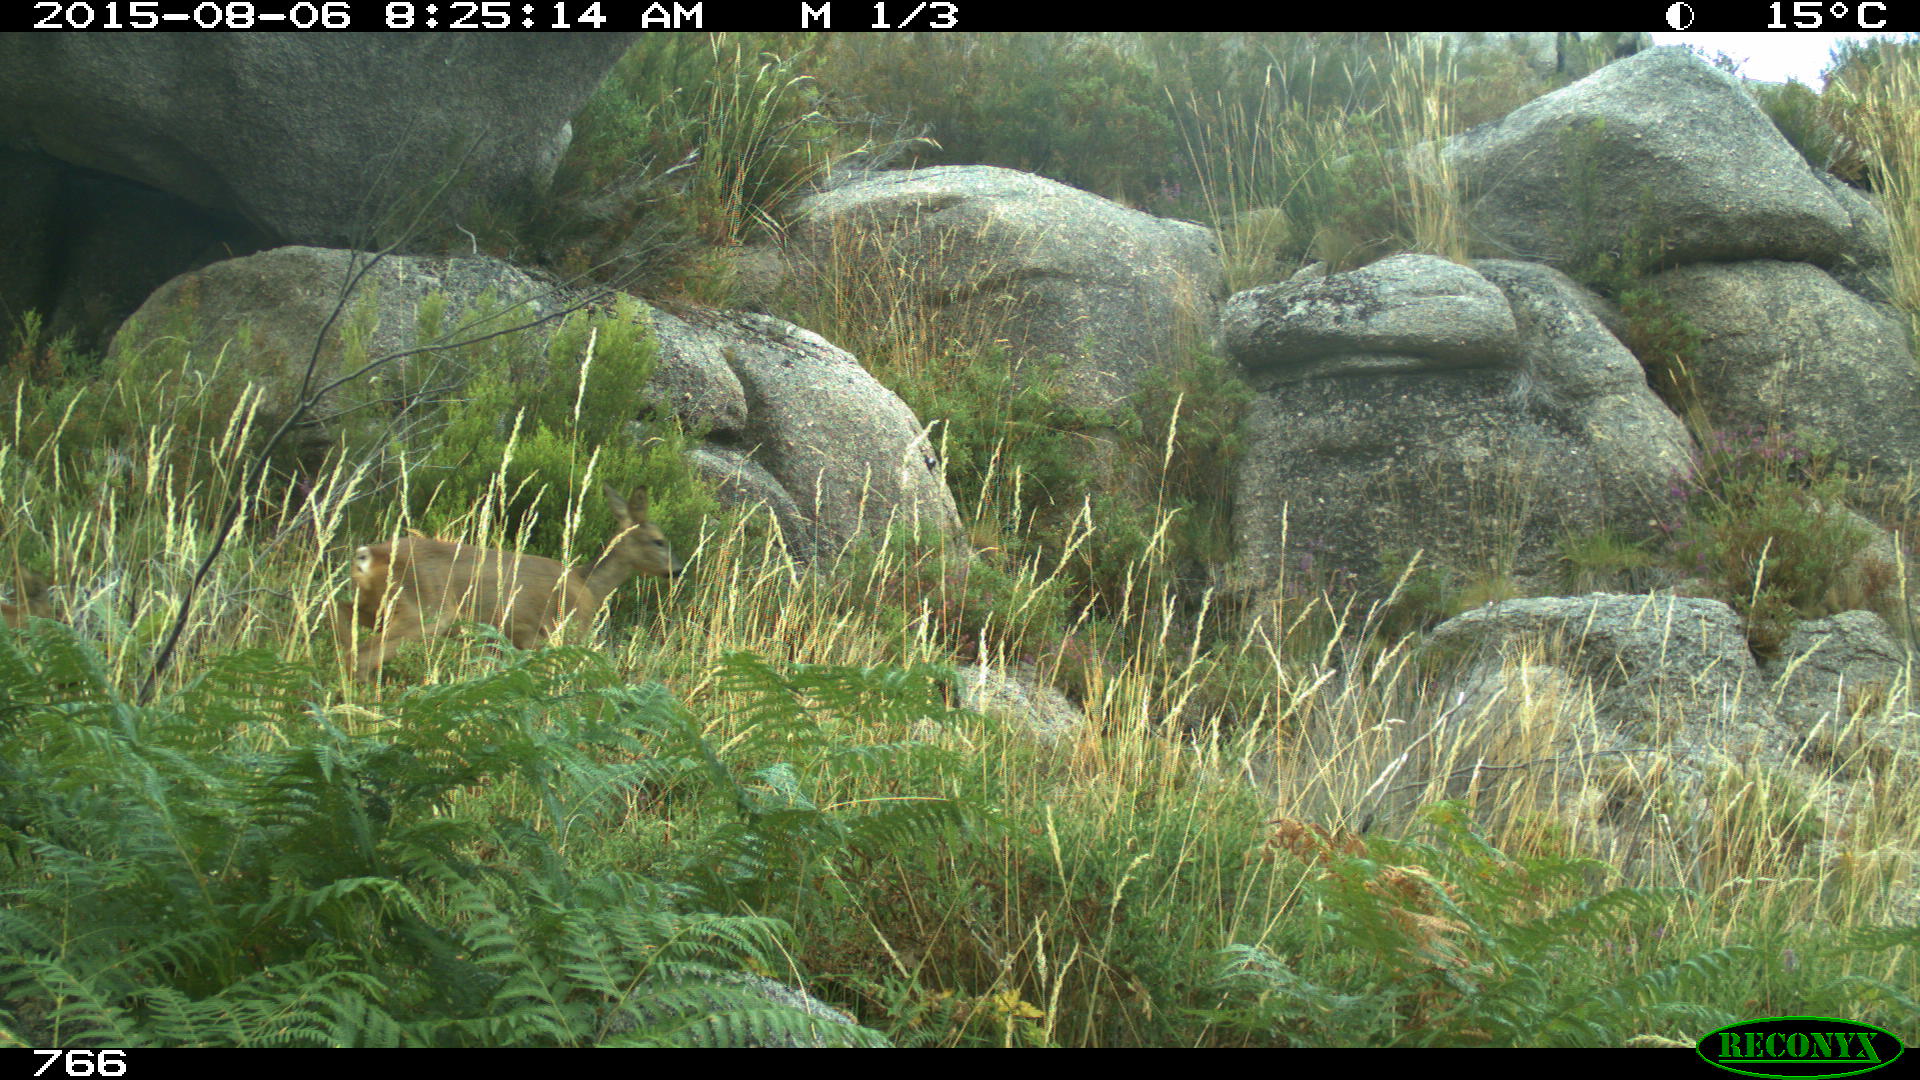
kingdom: Animalia
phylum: Chordata
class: Mammalia
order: Artiodactyla
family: Cervidae
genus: Capreolus
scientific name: Capreolus capreolus
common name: Western roe deer
